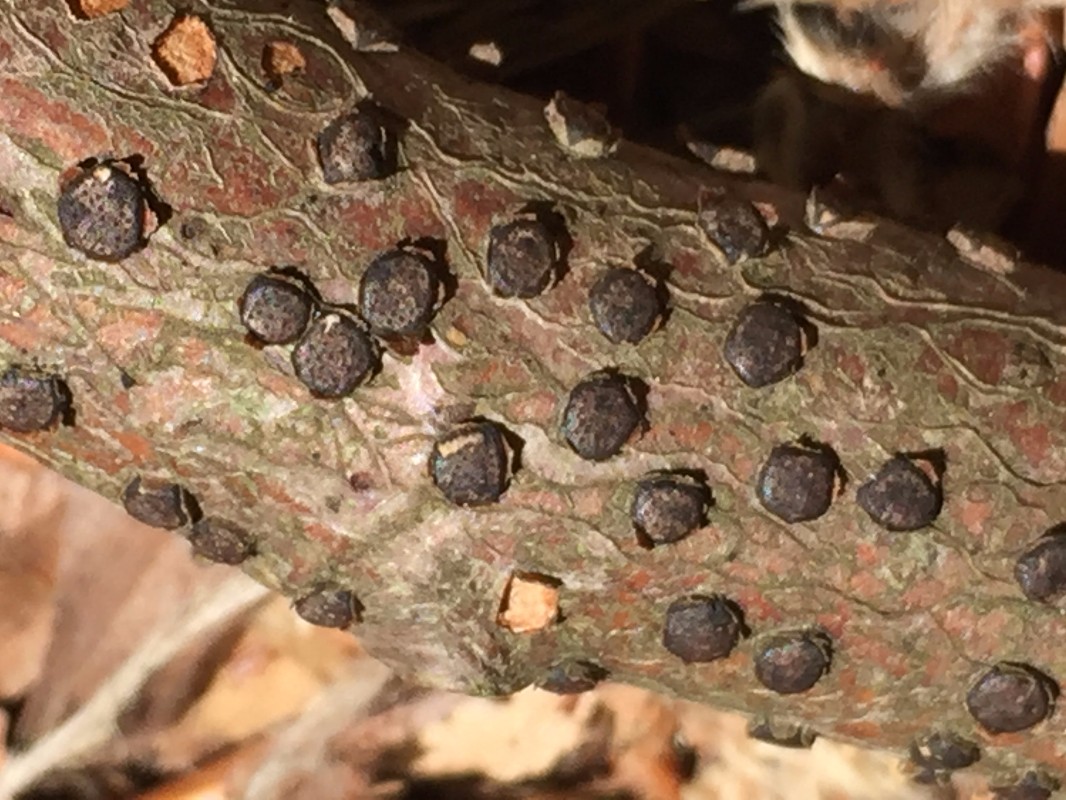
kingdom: Fungi
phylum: Ascomycota
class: Sordariomycetes
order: Xylariales
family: Diatrypaceae
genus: Diatrype
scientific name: Diatrype disciformis
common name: kant-kulskorpe
